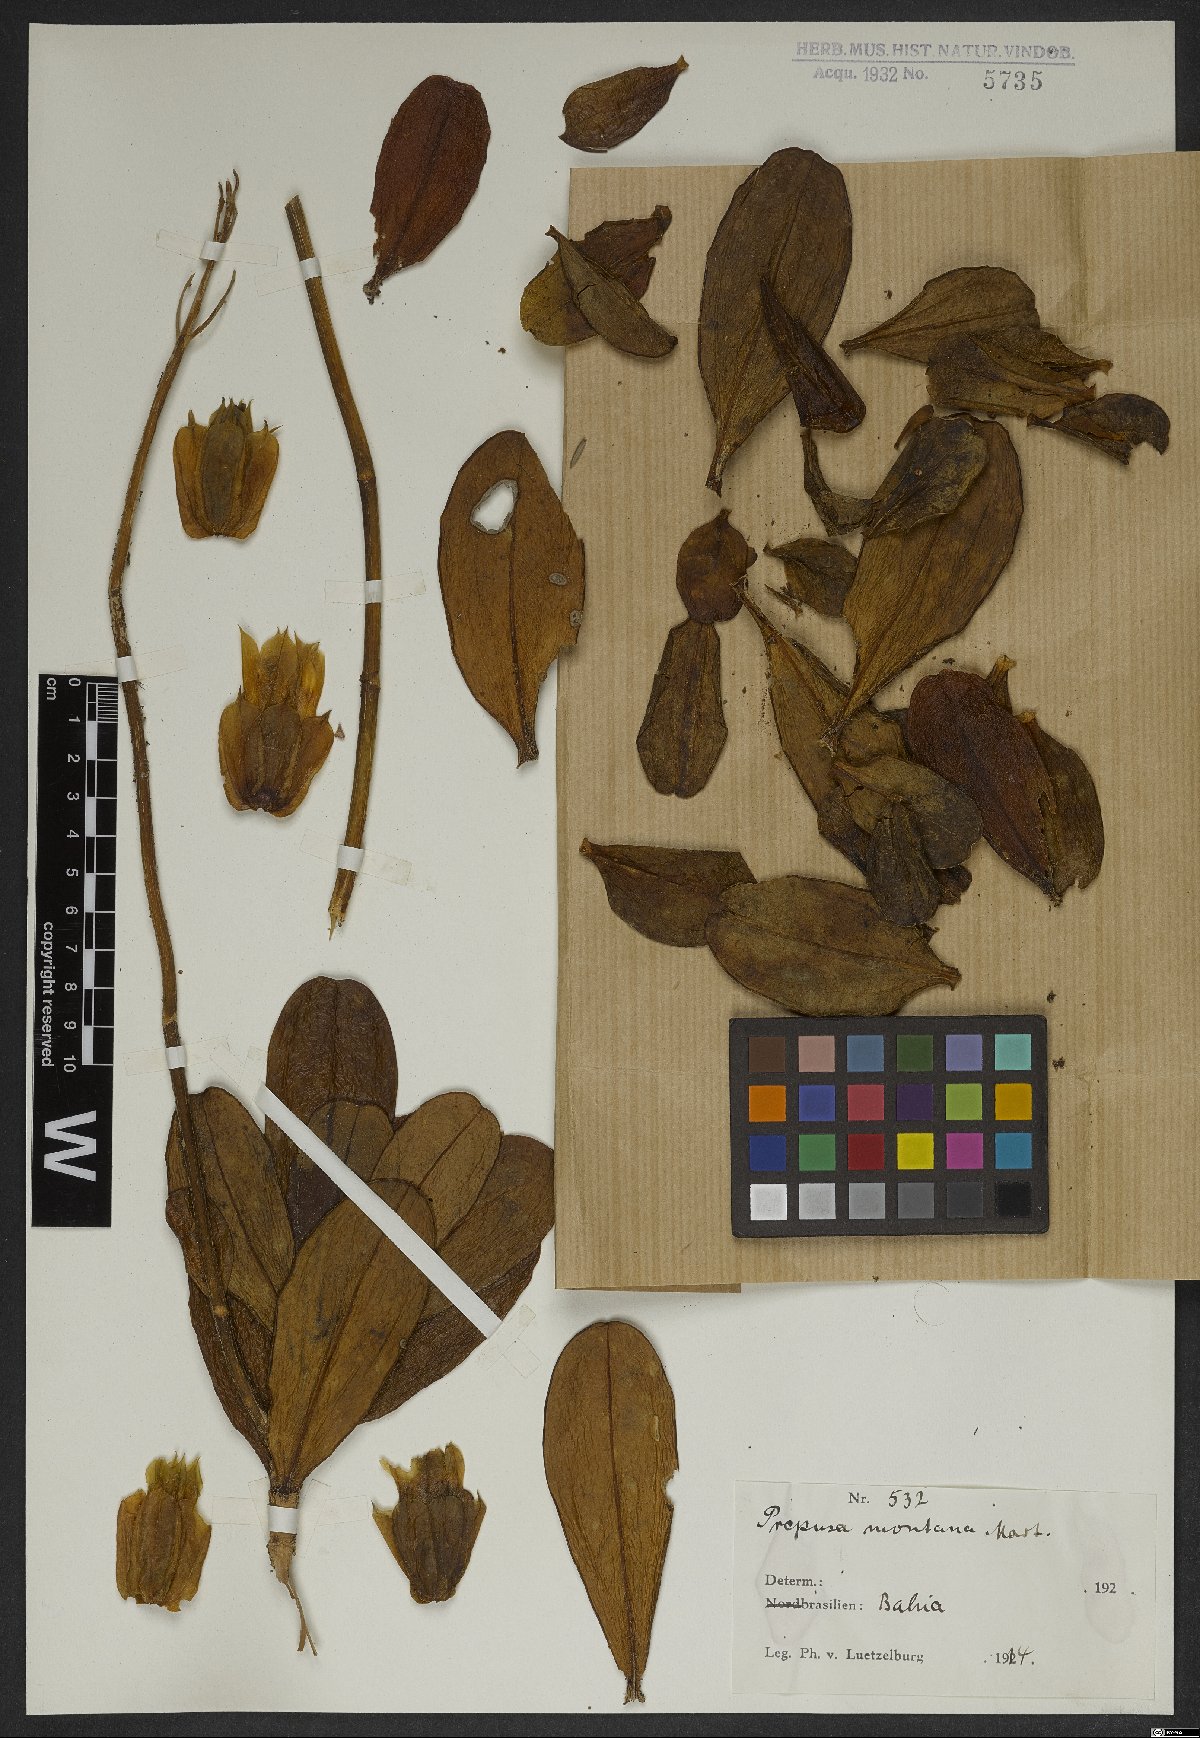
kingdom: Plantae
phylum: Tracheophyta
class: Magnoliopsida
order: Gentianales
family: Gentianaceae
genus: Prepusa
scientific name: Prepusa montana
